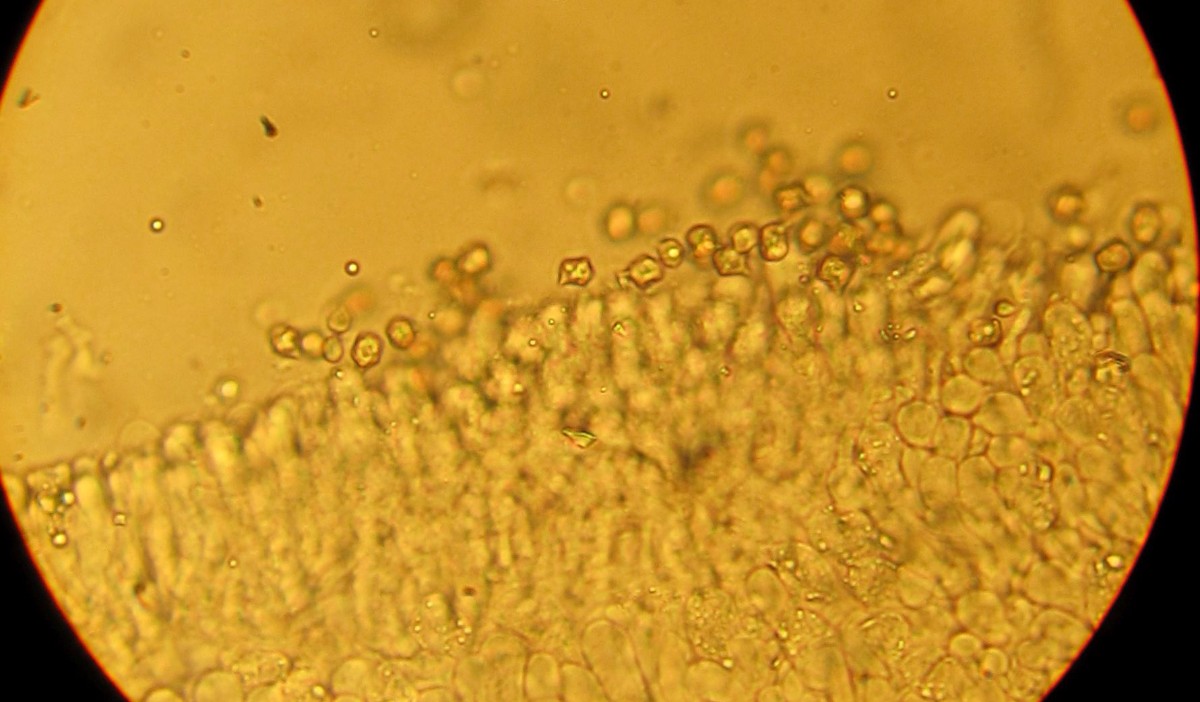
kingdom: Fungi
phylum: Basidiomycota
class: Agaricomycetes
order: Agaricales
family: Entolomataceae
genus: Entoloma
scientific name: Entoloma lividoalbum
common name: lysstokket rødblad
